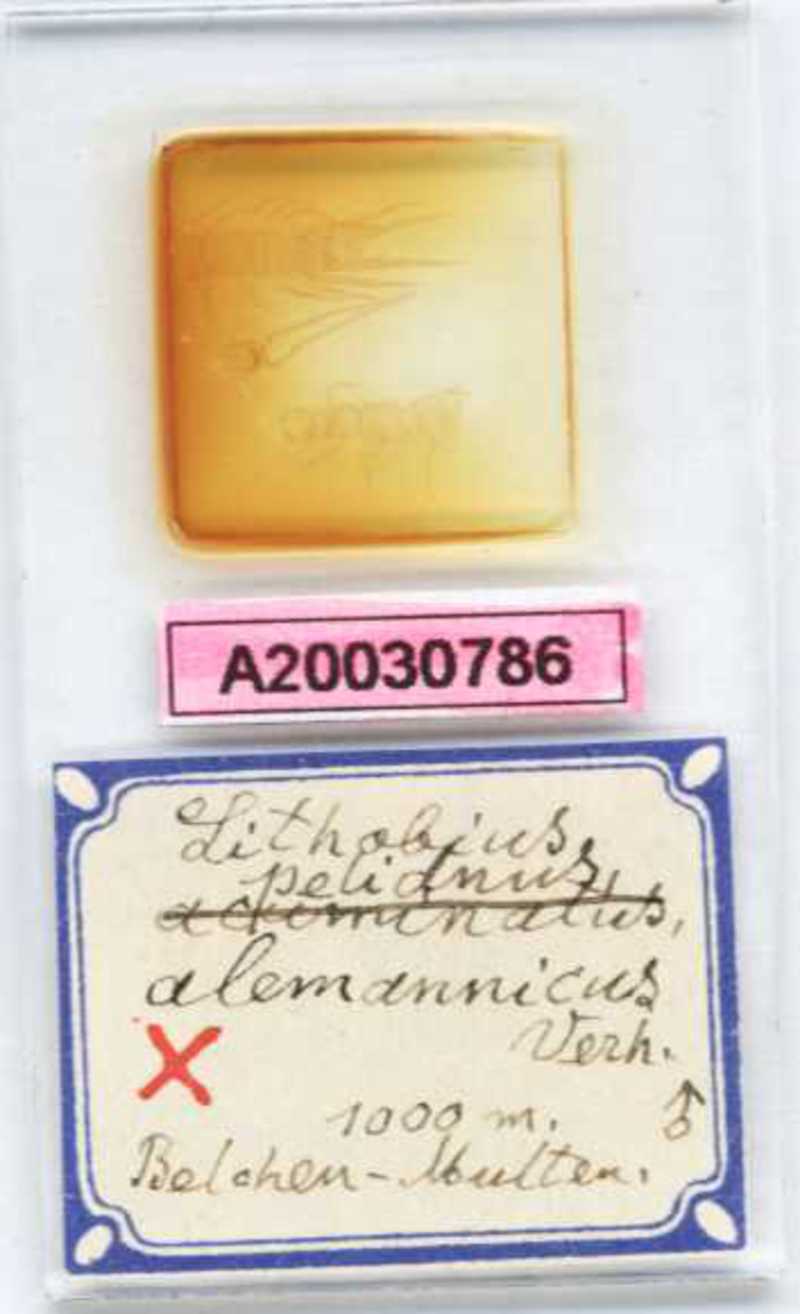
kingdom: Animalia
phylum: Arthropoda
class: Chilopoda
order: Lithobiomorpha
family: Lithobiidae
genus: Lithobius
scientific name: Lithobius pelidnus
